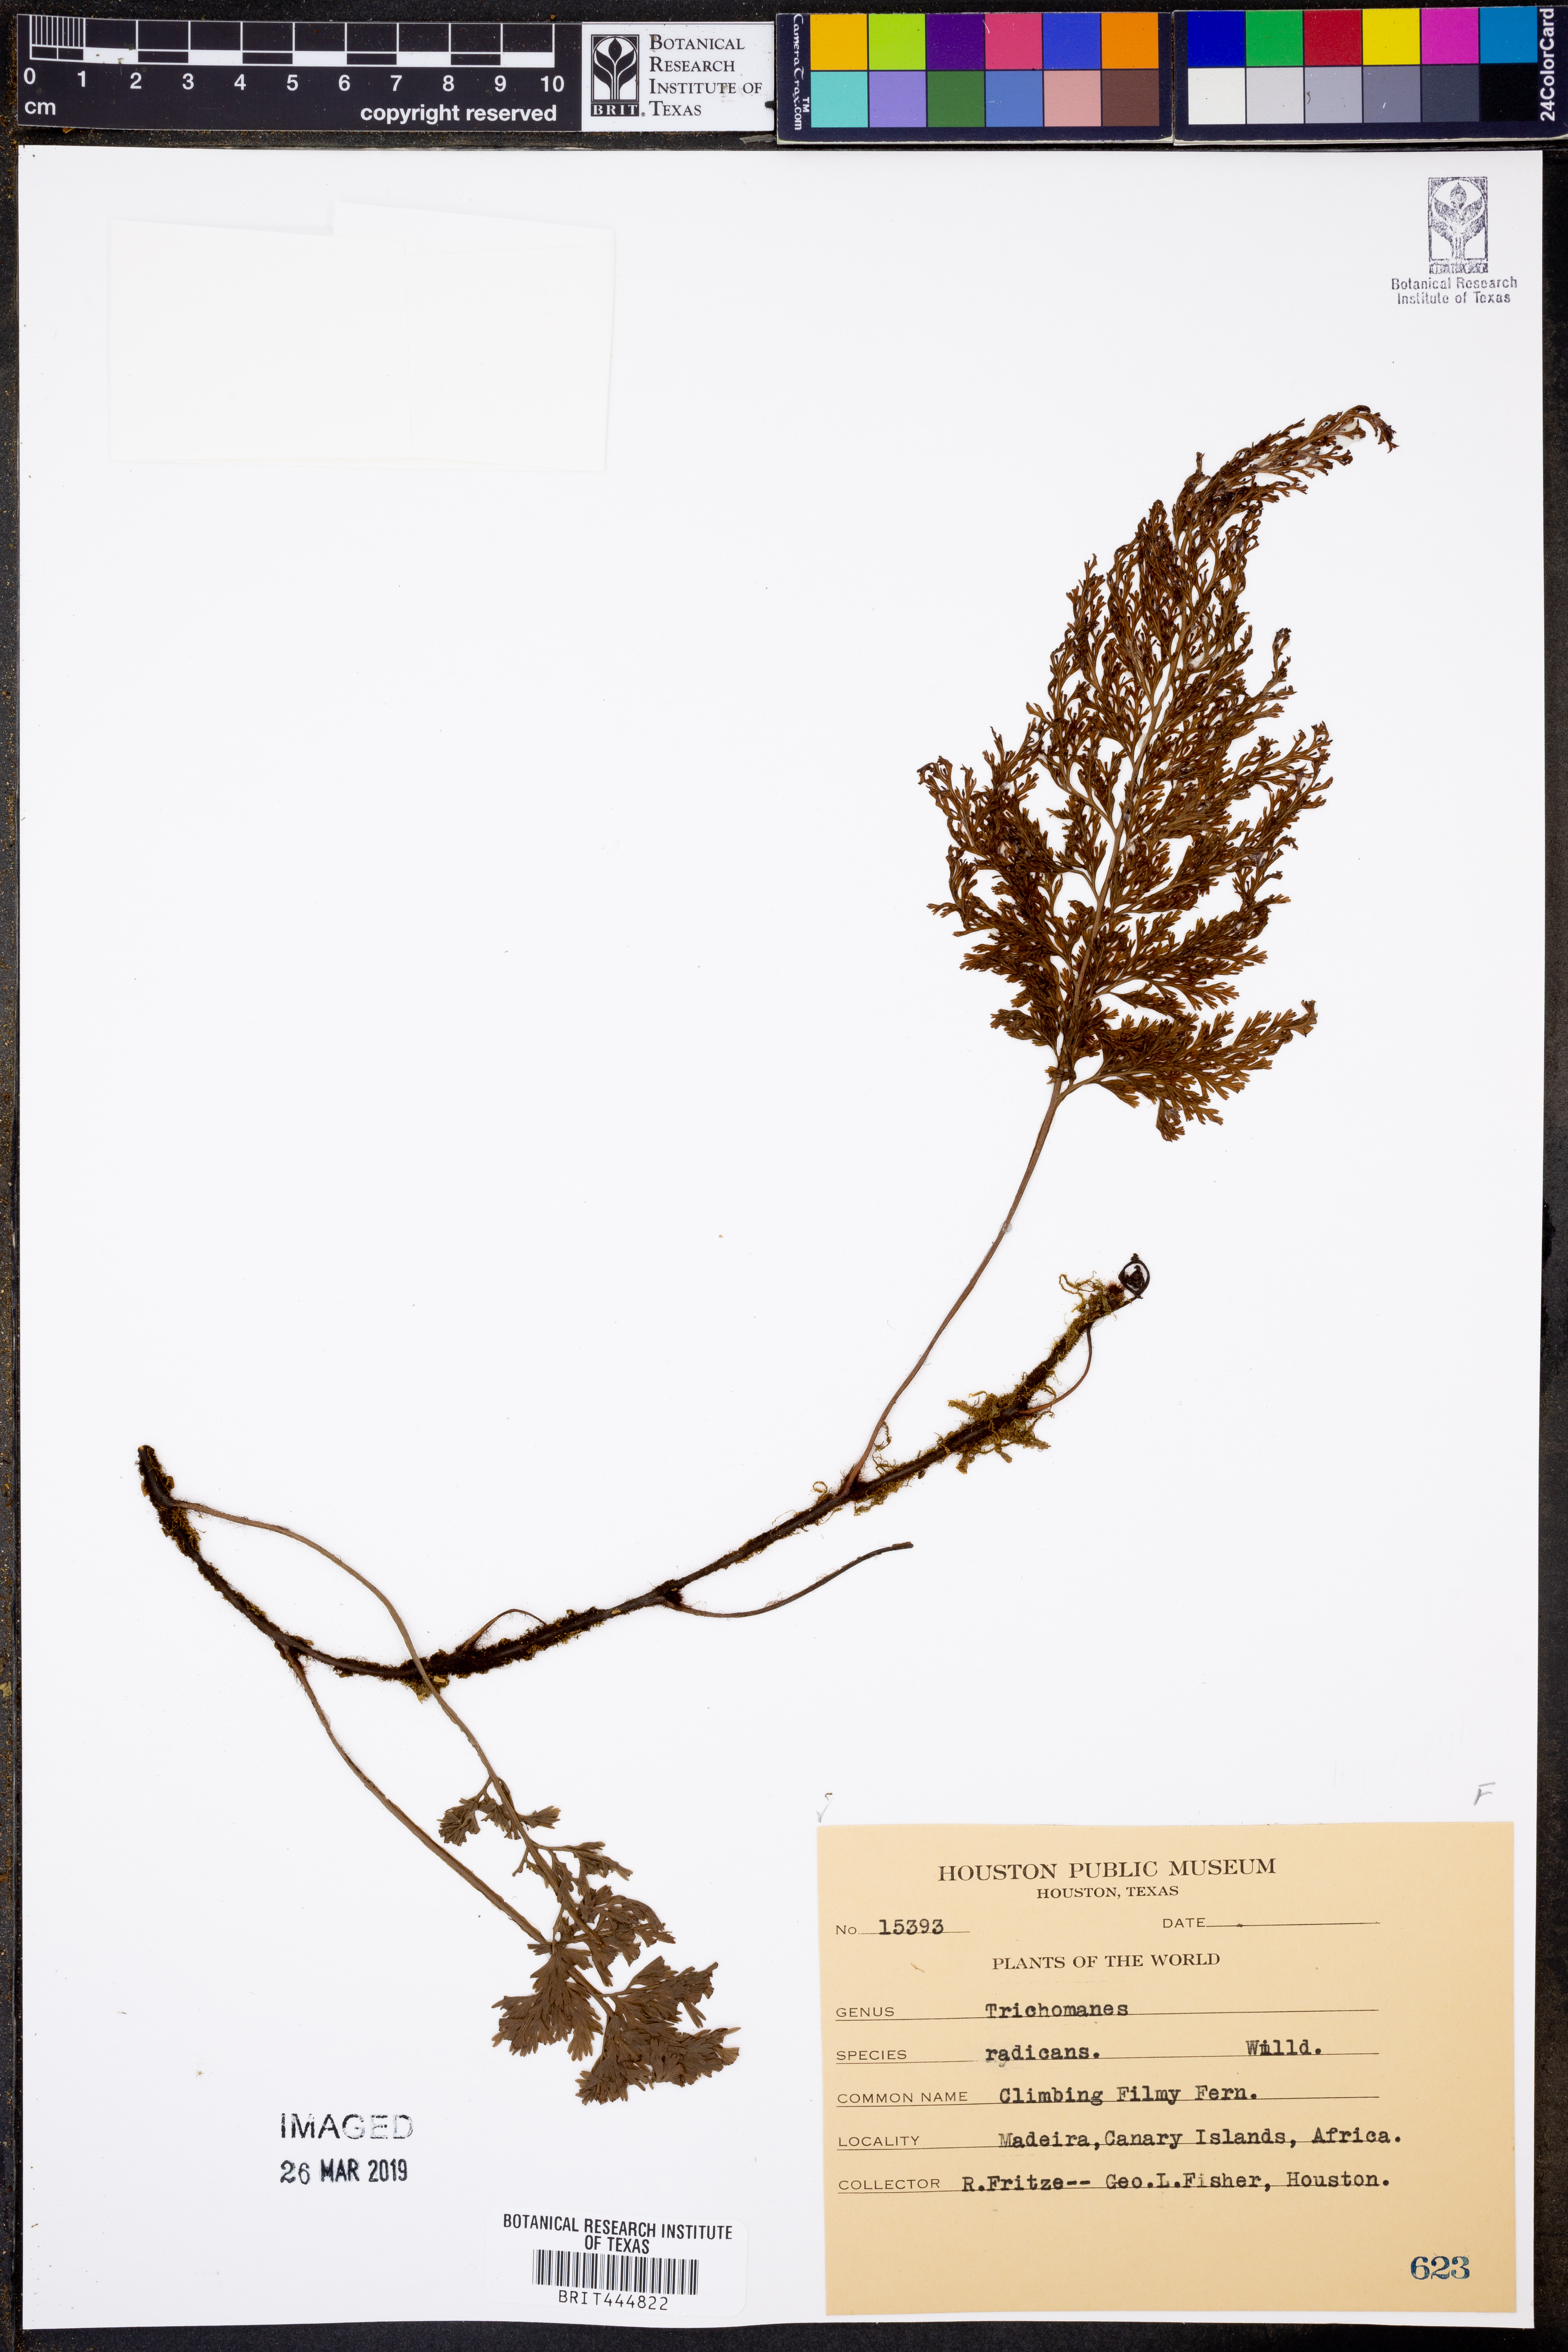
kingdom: Plantae
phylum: Tracheophyta
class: Polypodiopsida
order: Hymenophyllales
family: Hymenophyllaceae
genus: Vandenboschia
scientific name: Vandenboschia radicans
